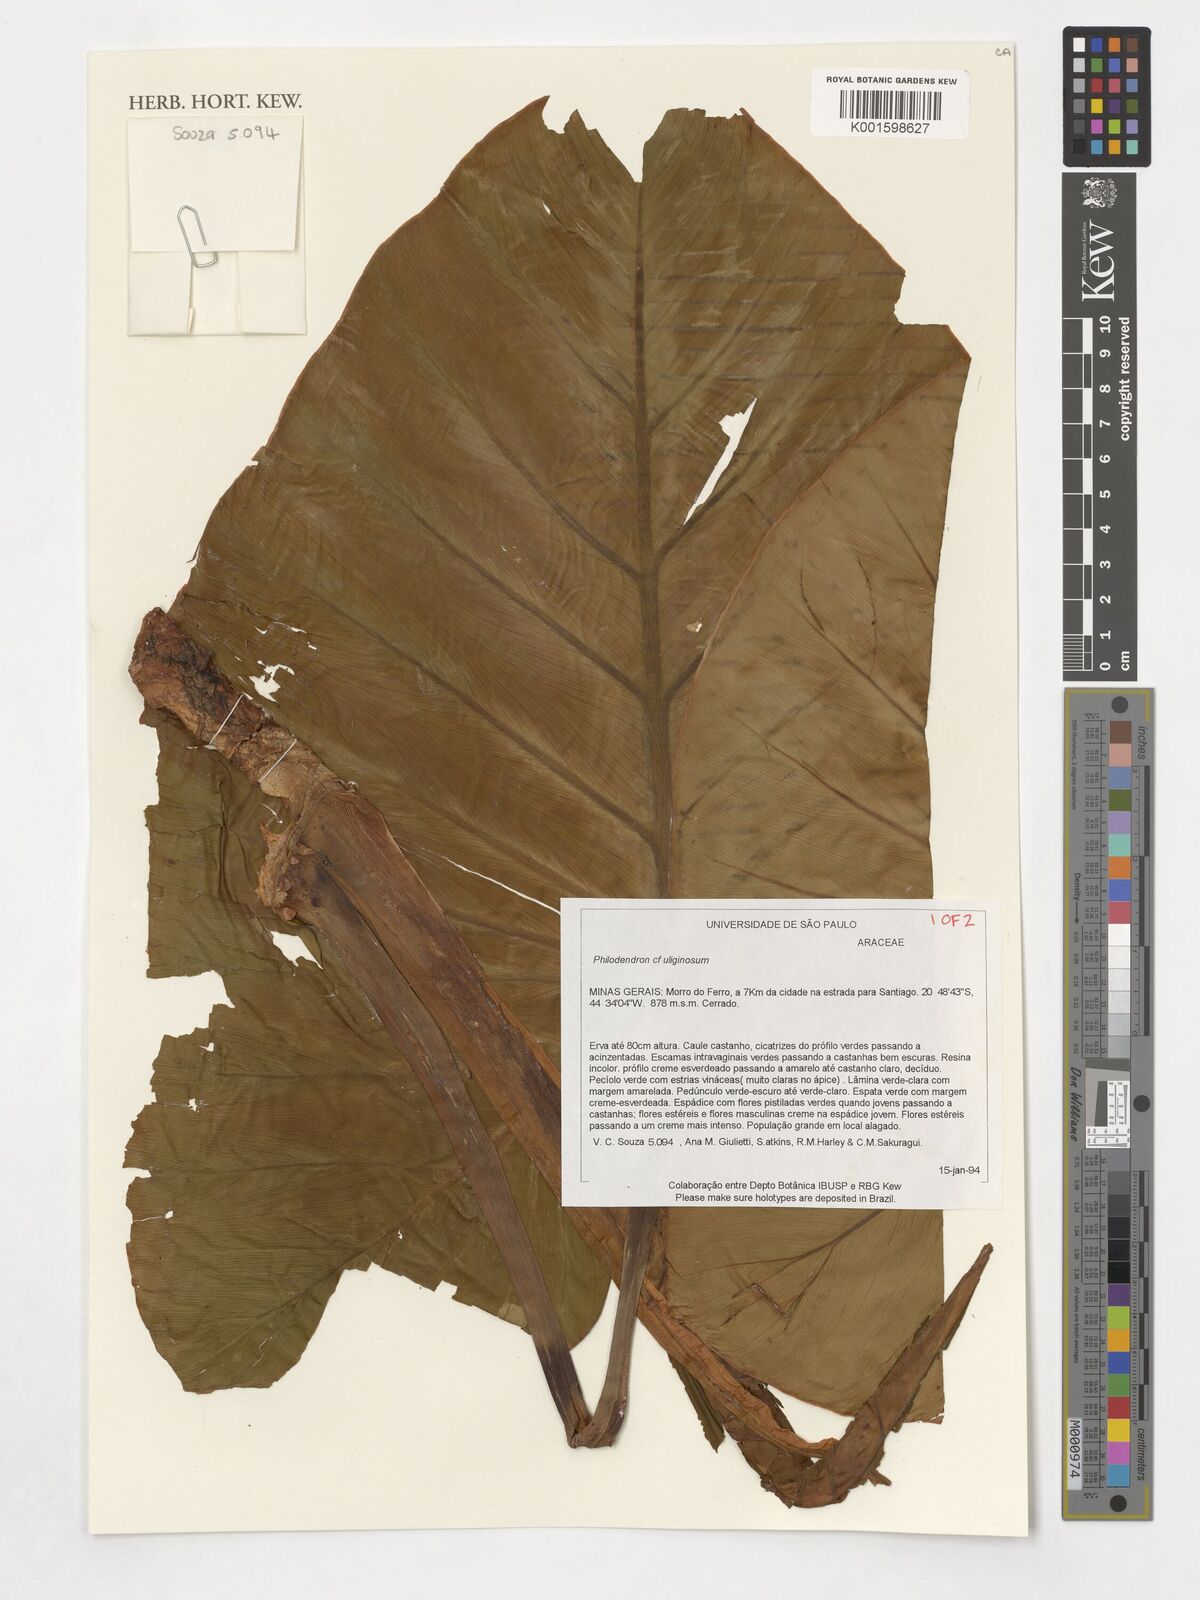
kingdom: Plantae
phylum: Tracheophyta
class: Liliopsida
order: Alismatales
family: Araceae
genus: Thaumatophyllum
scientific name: Thaumatophyllum uliginosum
